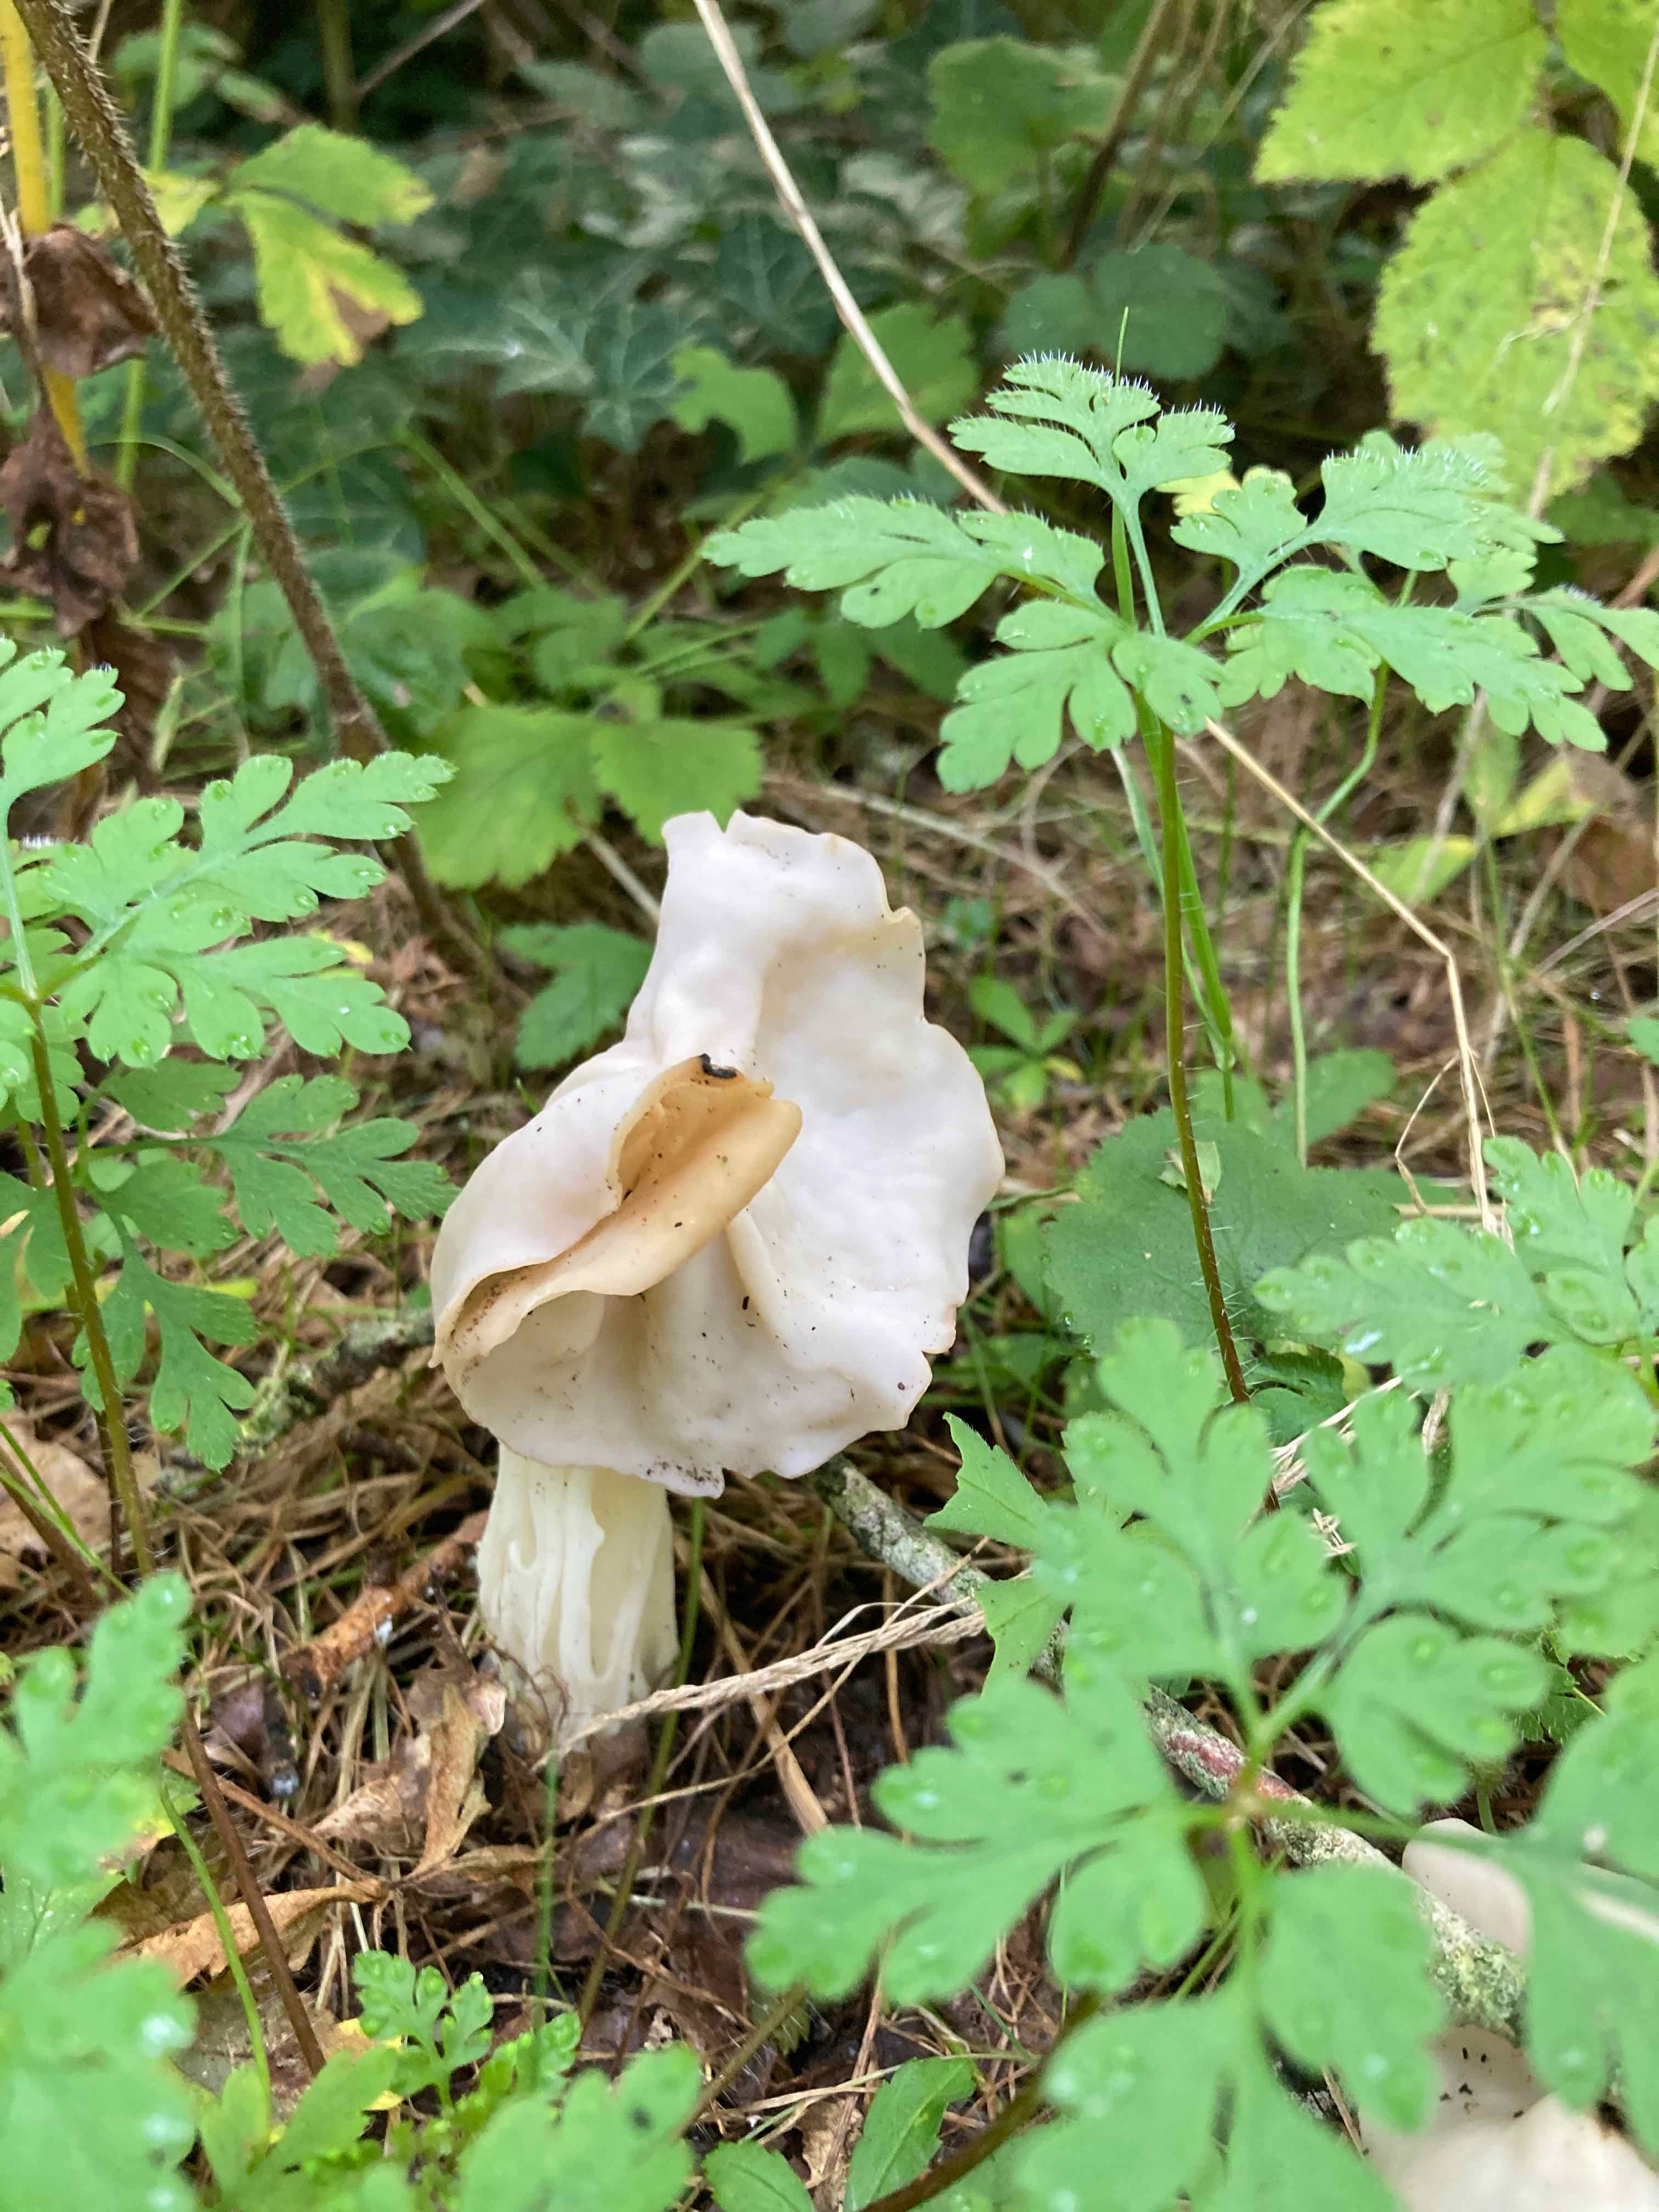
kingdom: Fungi
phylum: Ascomycota
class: Pezizomycetes
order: Pezizales
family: Helvellaceae
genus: Helvella
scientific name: Helvella crispa
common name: kruset foldhat
